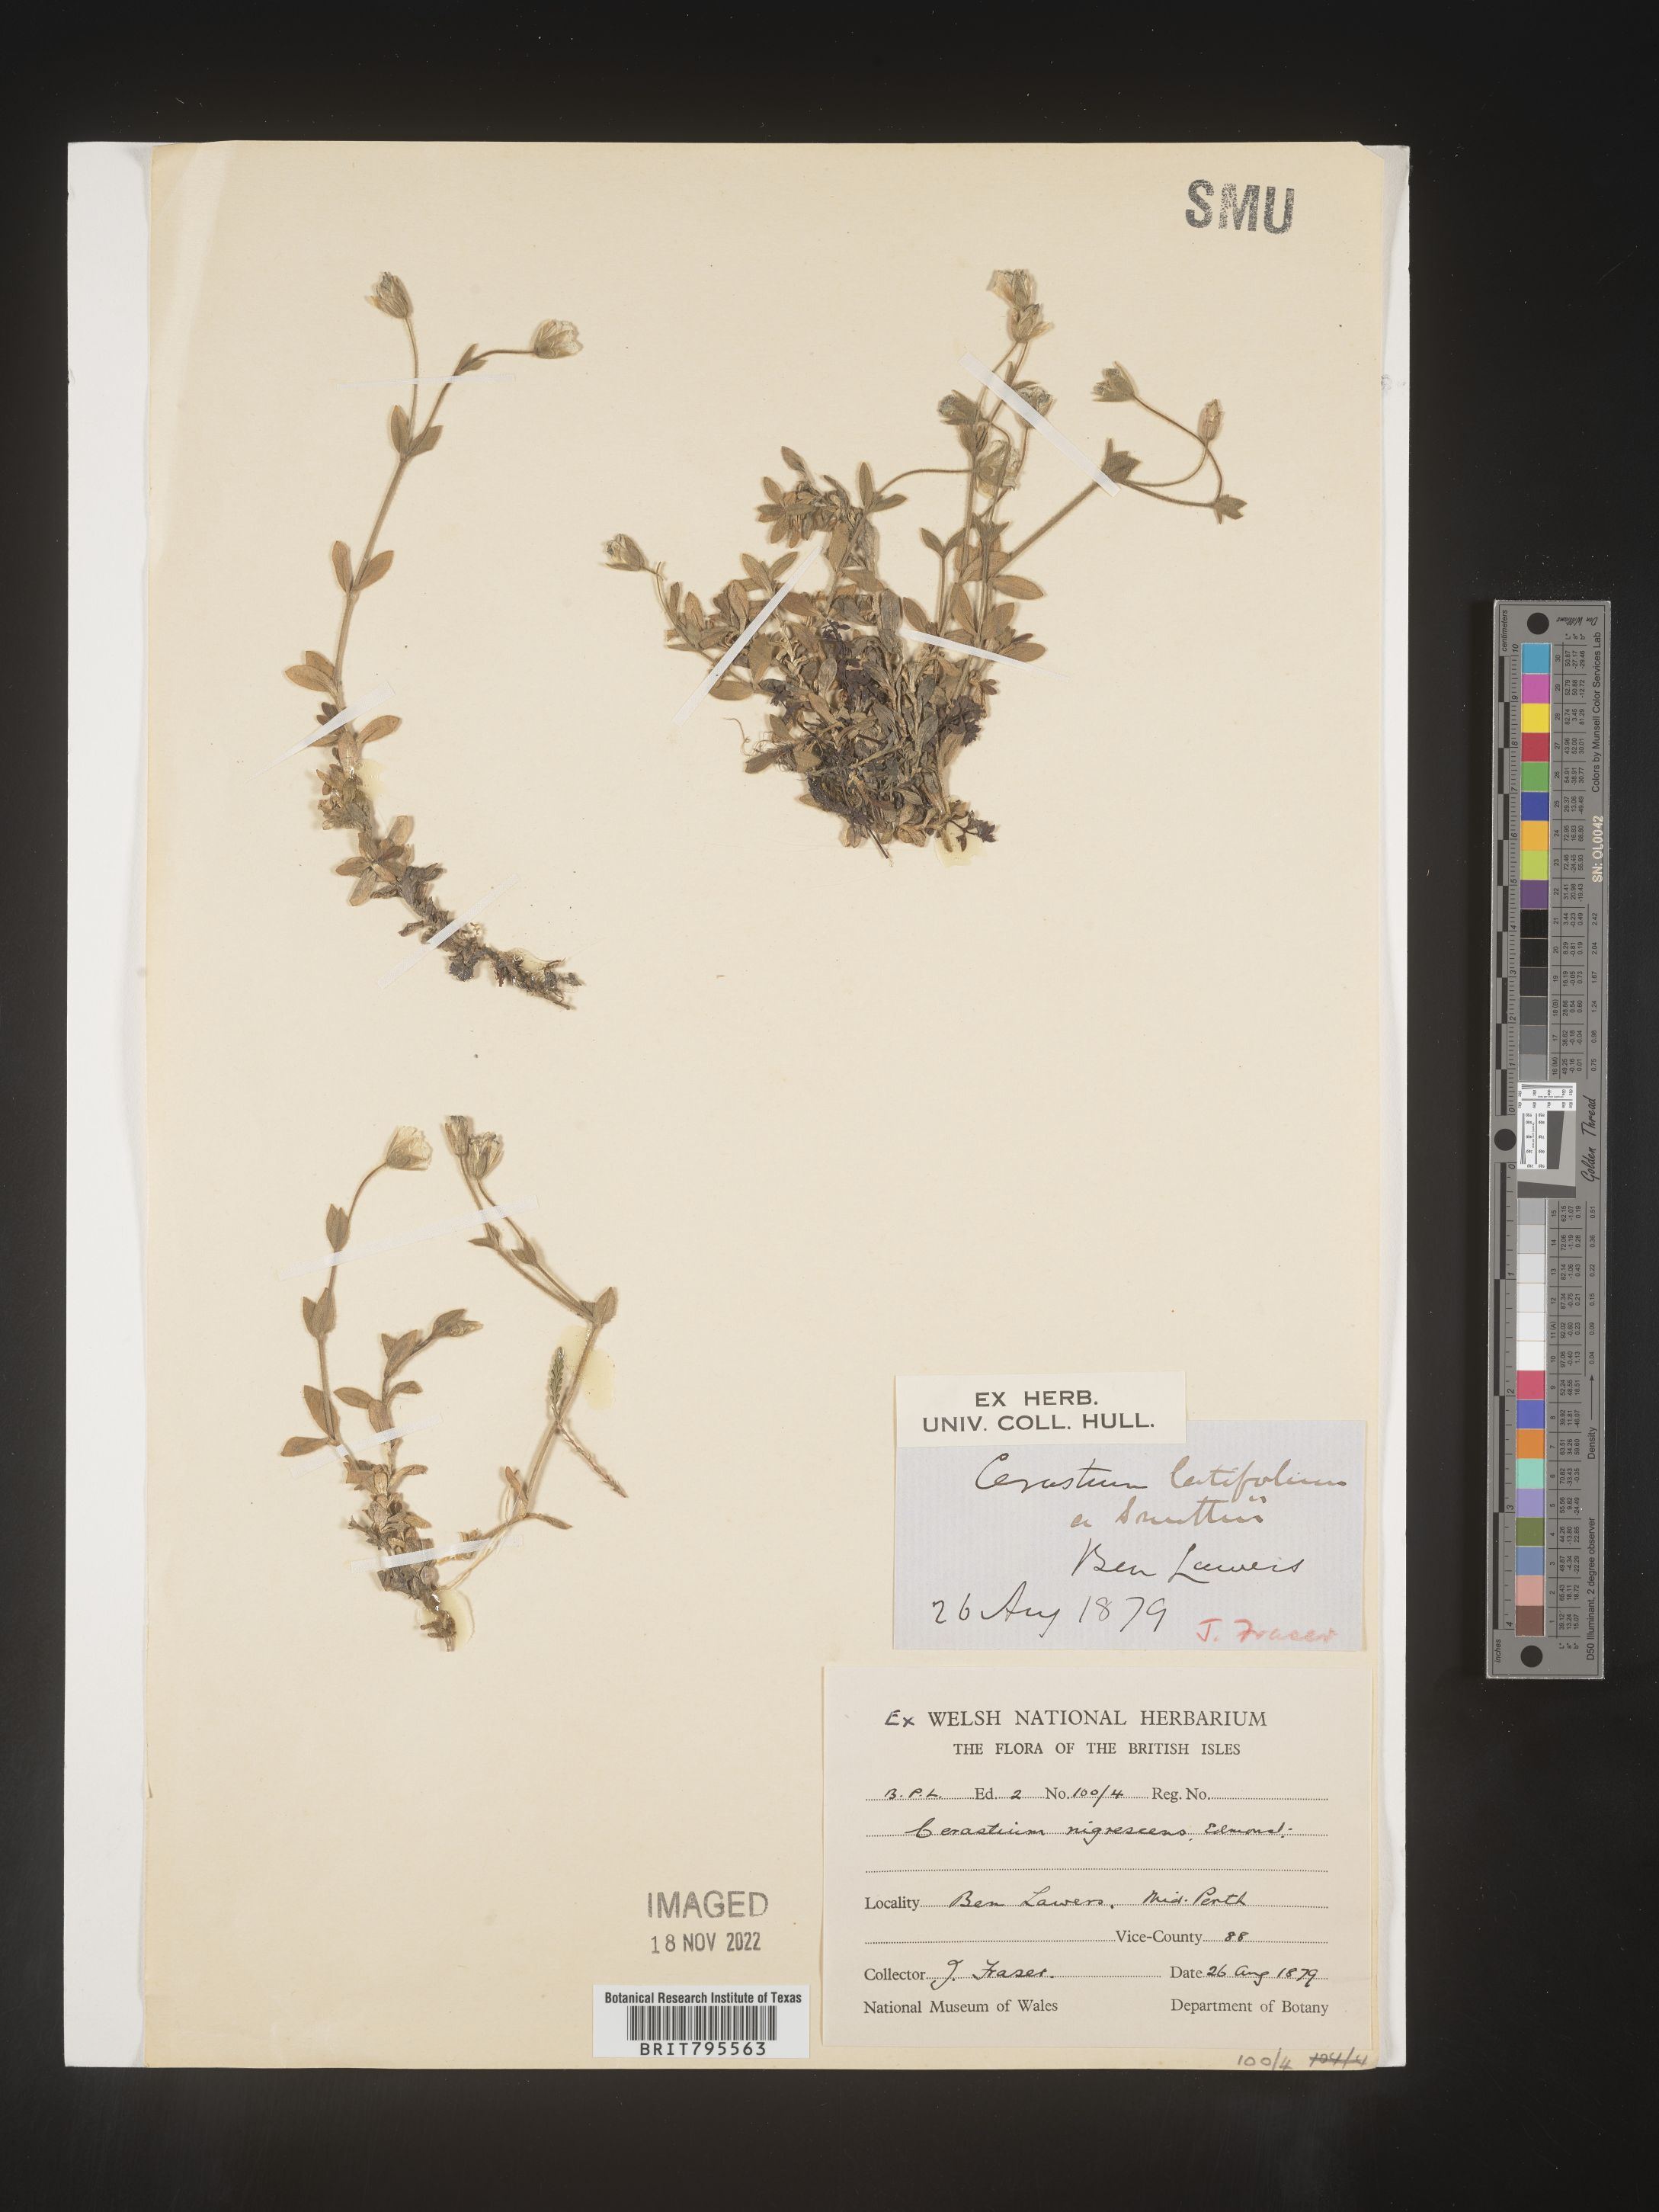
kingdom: Plantae
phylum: Tracheophyta
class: Magnoliopsida
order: Caryophyllales
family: Caryophyllaceae
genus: Cerastium
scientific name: Cerastium
